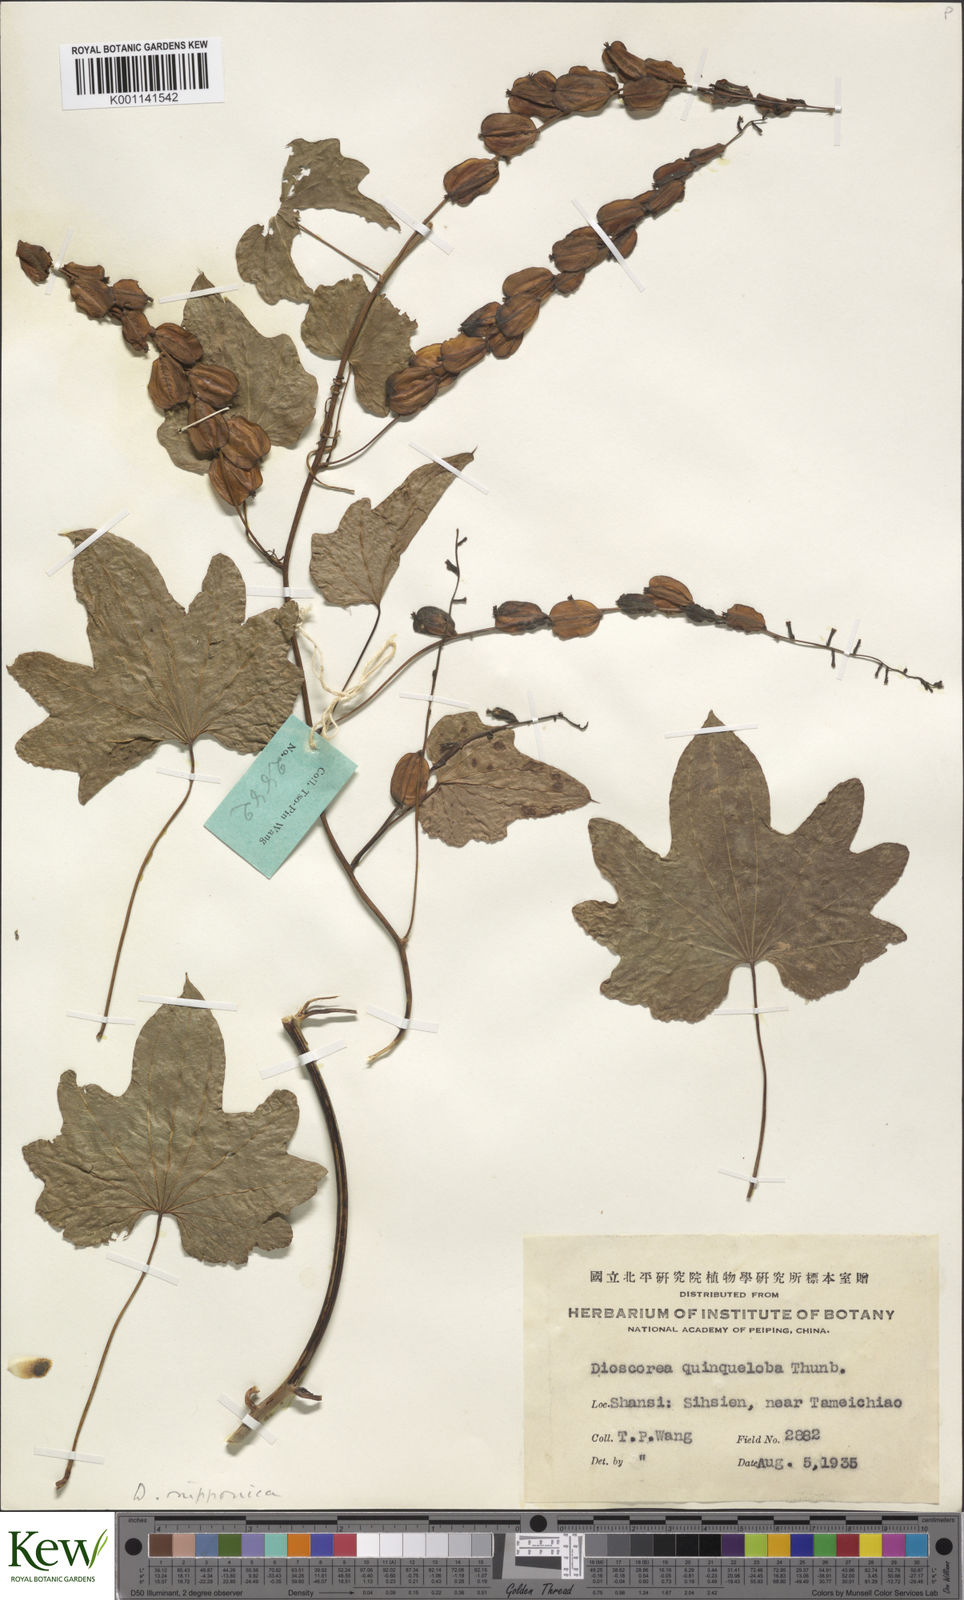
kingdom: Plantae
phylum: Tracheophyta
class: Liliopsida
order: Dioscoreales
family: Dioscoreaceae
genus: Dioscorea
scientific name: Dioscorea nipponica
